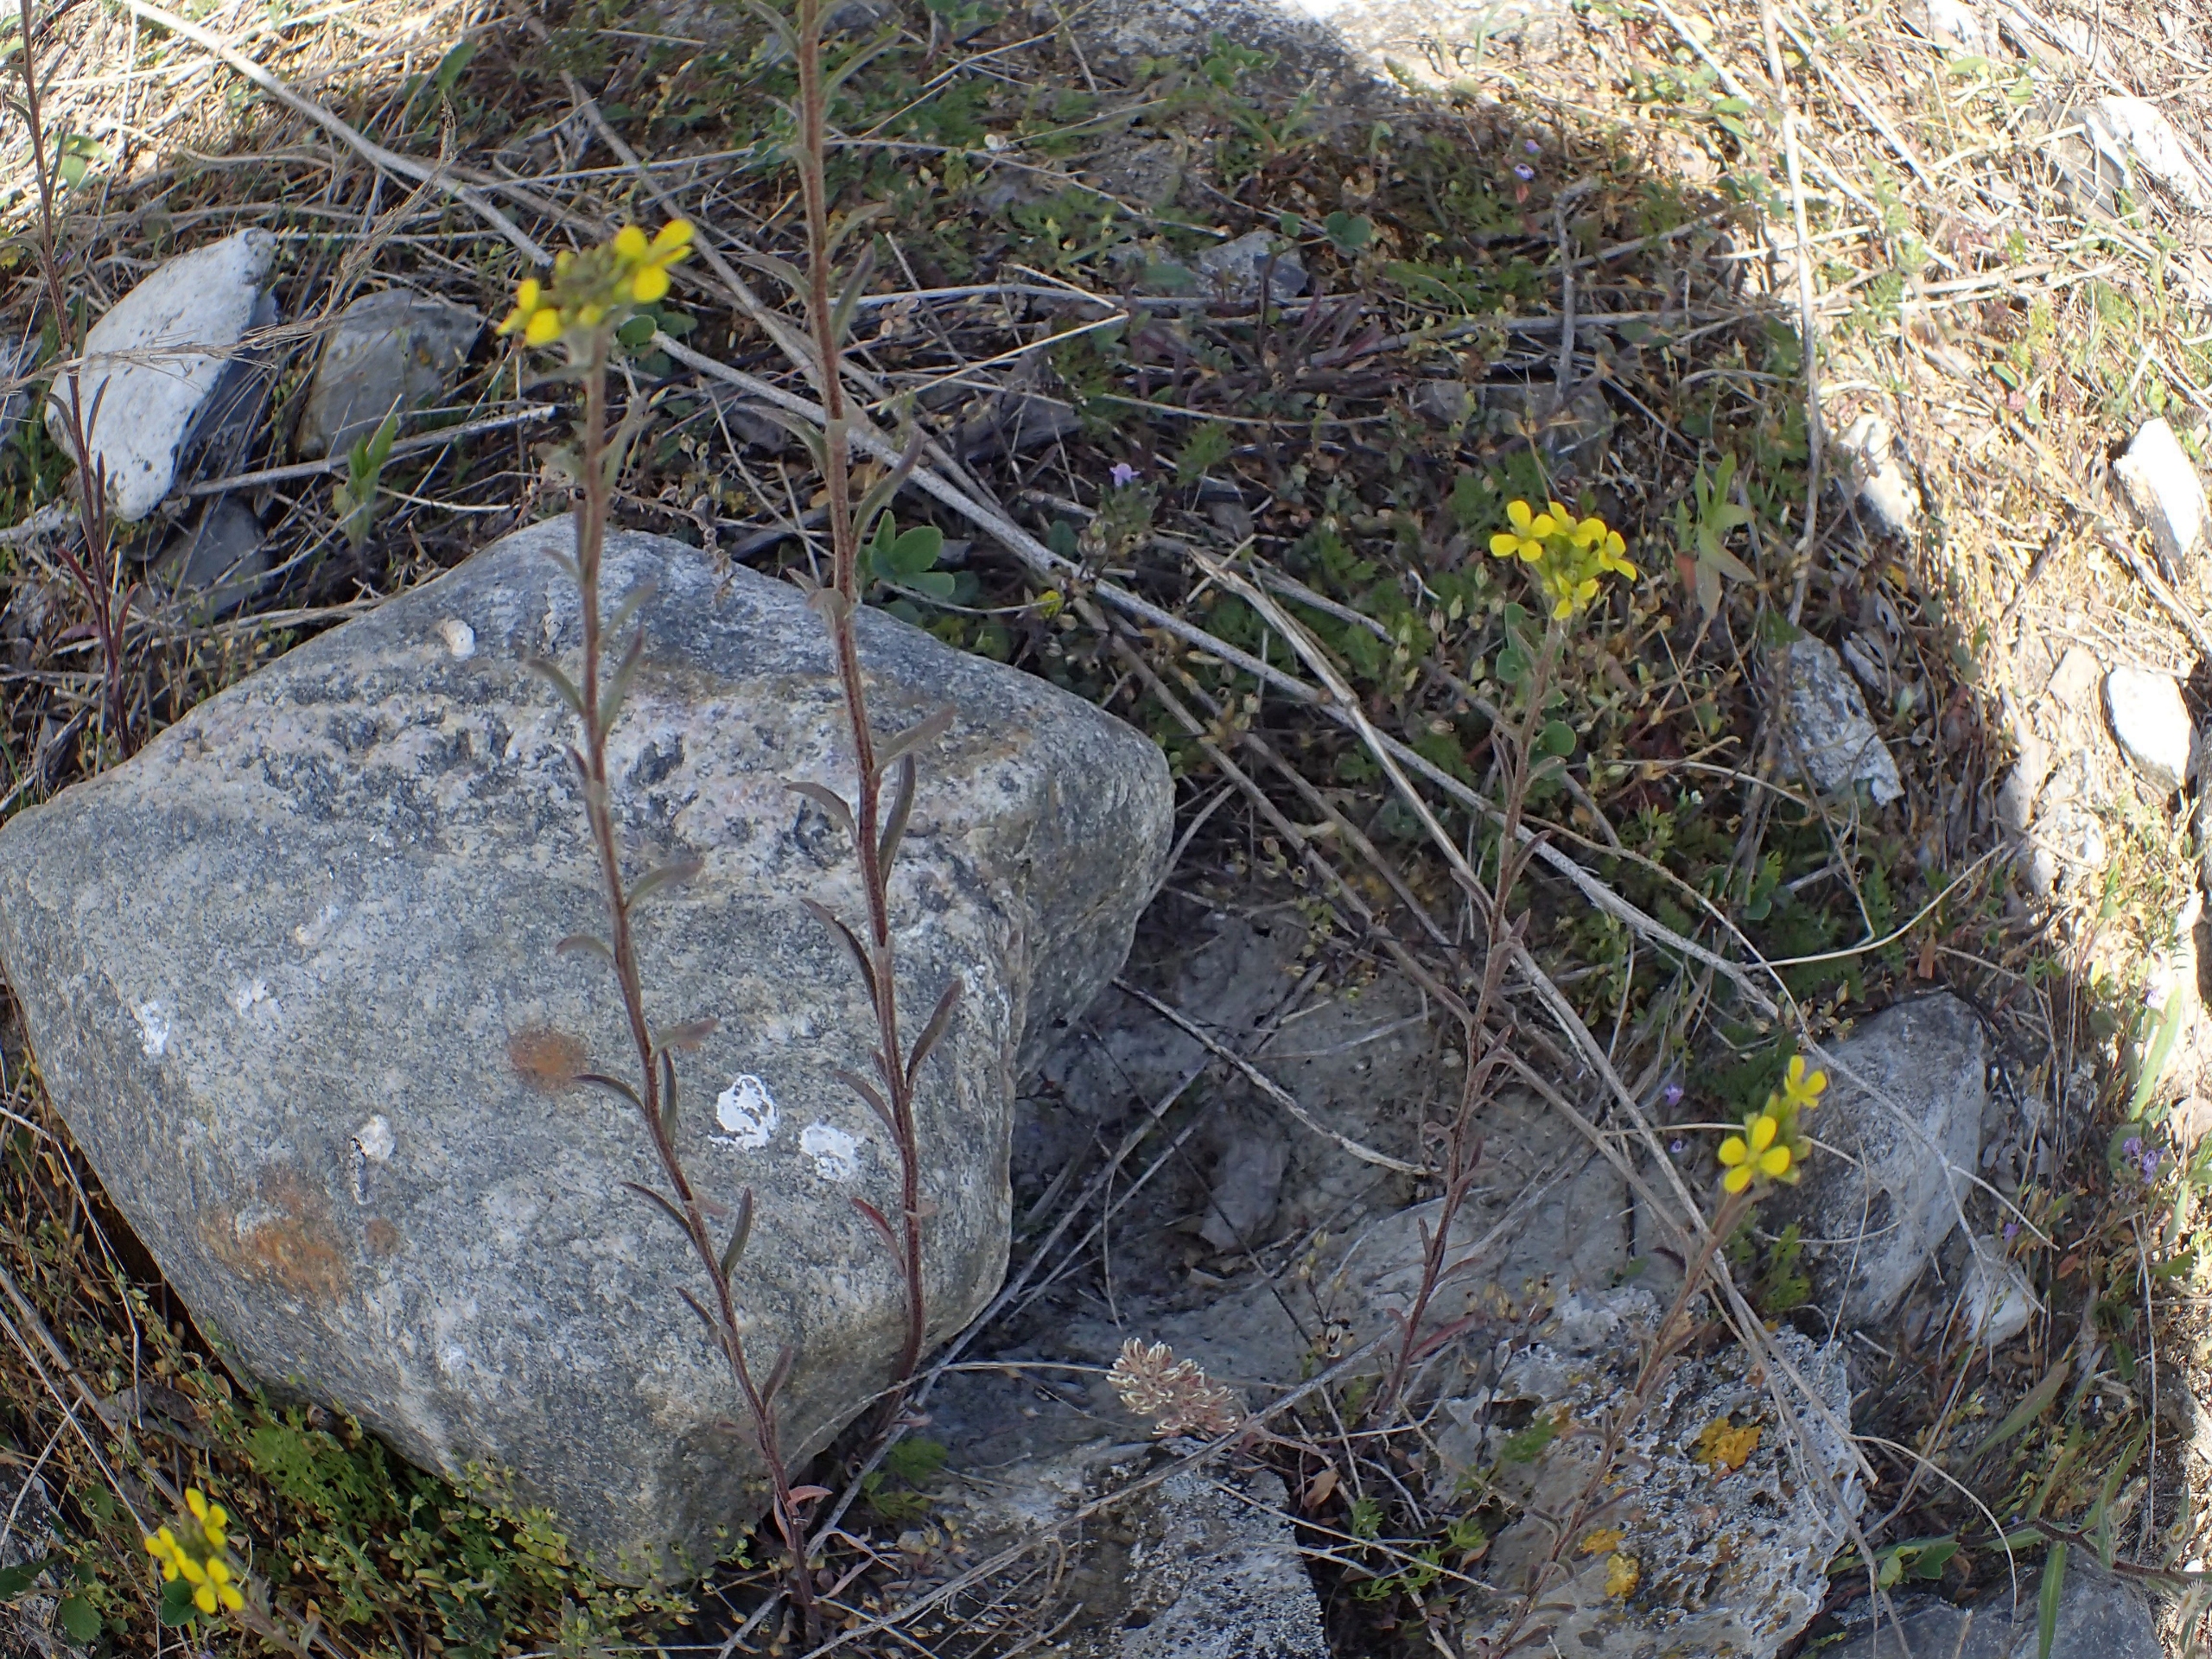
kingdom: Plantae
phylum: Tracheophyta
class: Magnoliopsida
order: Brassicales
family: Brassicaceae
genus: Erysimum
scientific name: Erysimum marschallianum
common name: Hård hjørneklap
